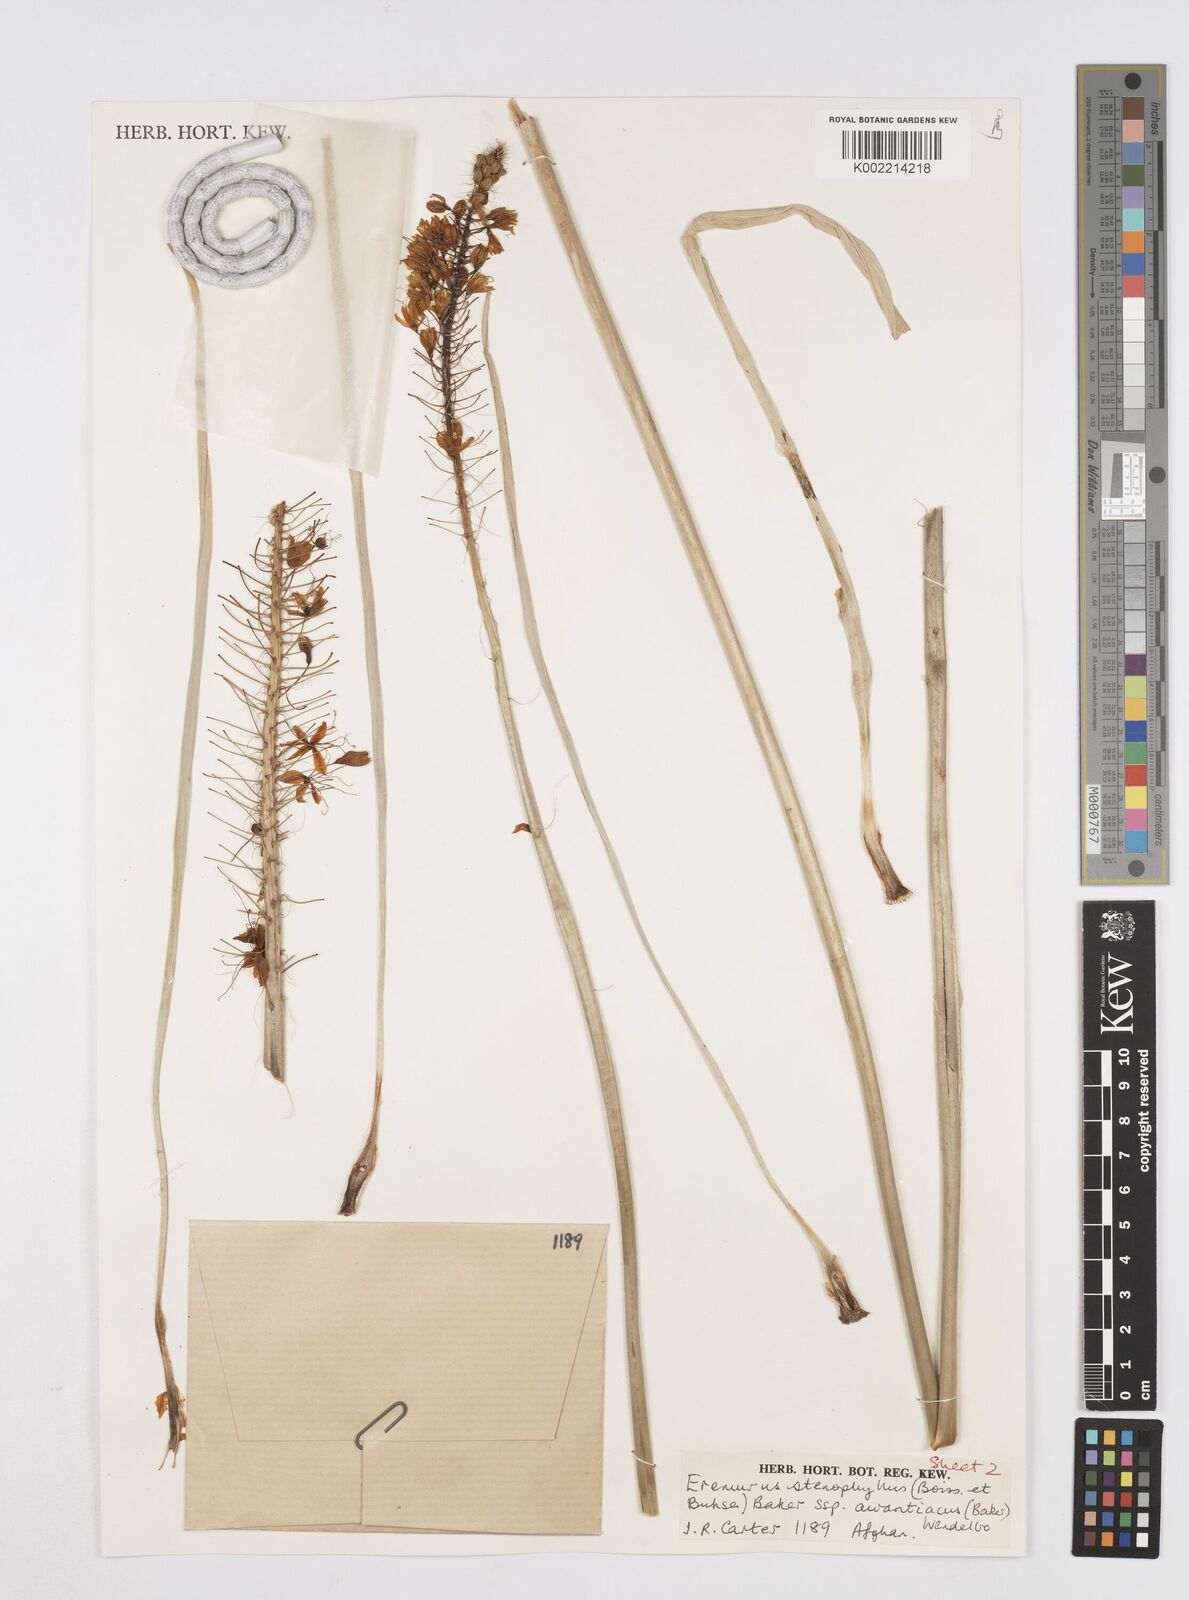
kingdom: Plantae
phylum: Tracheophyta
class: Liliopsida
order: Asparagales
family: Asphodelaceae
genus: Eremurus
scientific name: Eremurus stenophyllus
